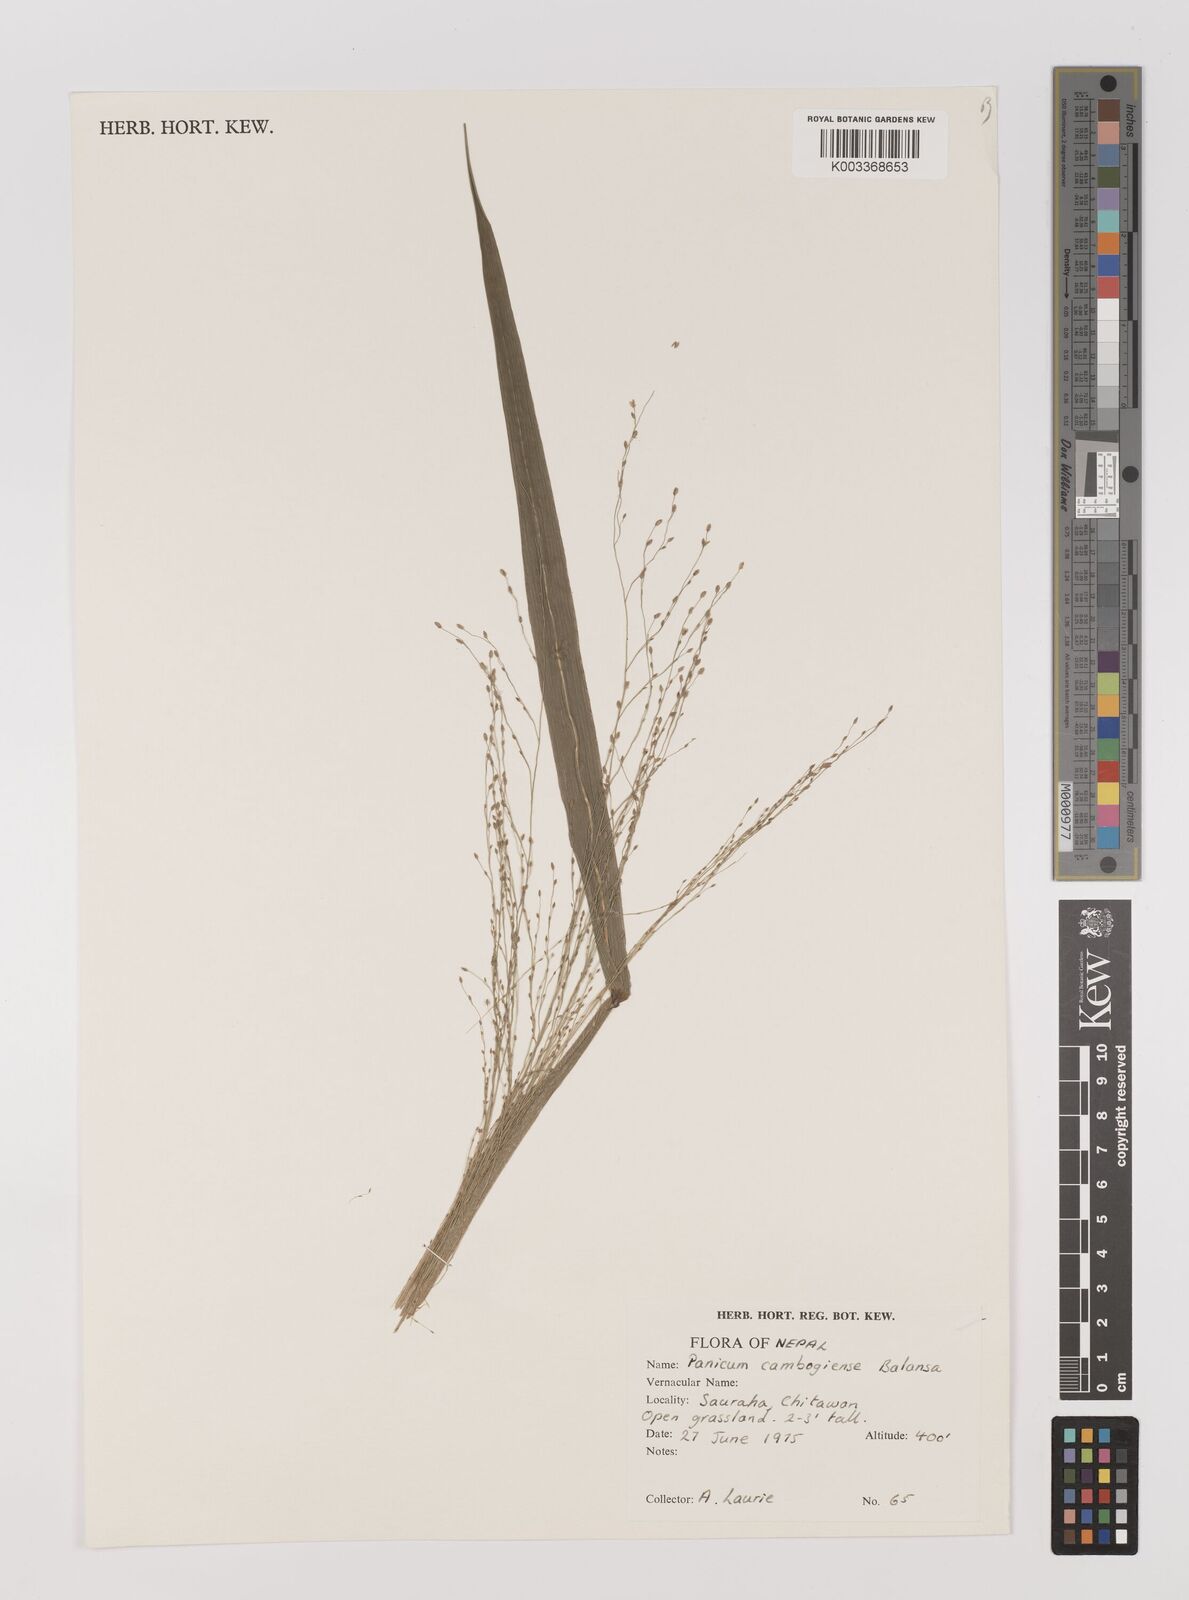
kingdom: Plantae
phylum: Tracheophyta
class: Liliopsida
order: Poales
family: Poaceae
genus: Panicum
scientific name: Panicum luzonense
